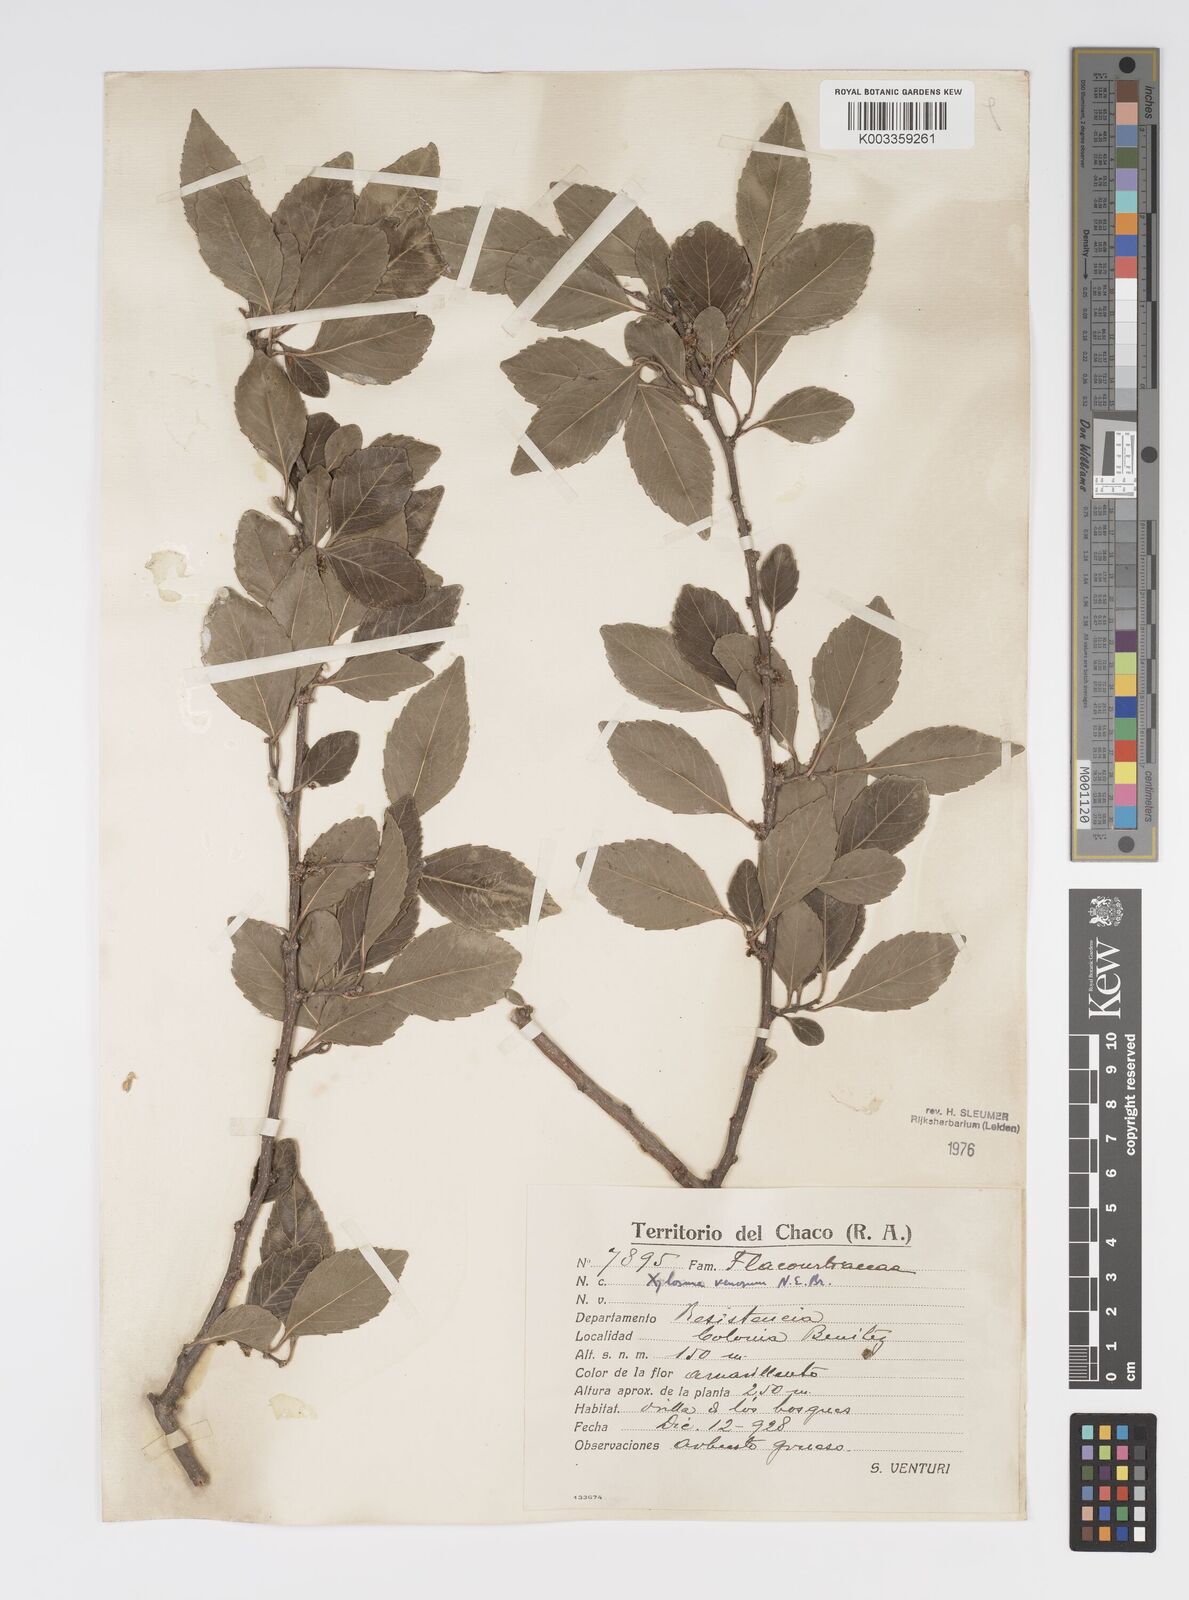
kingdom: Plantae
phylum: Tracheophyta
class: Magnoliopsida
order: Malpighiales
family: Salicaceae
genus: Xylosma
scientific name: Xylosma venosa
